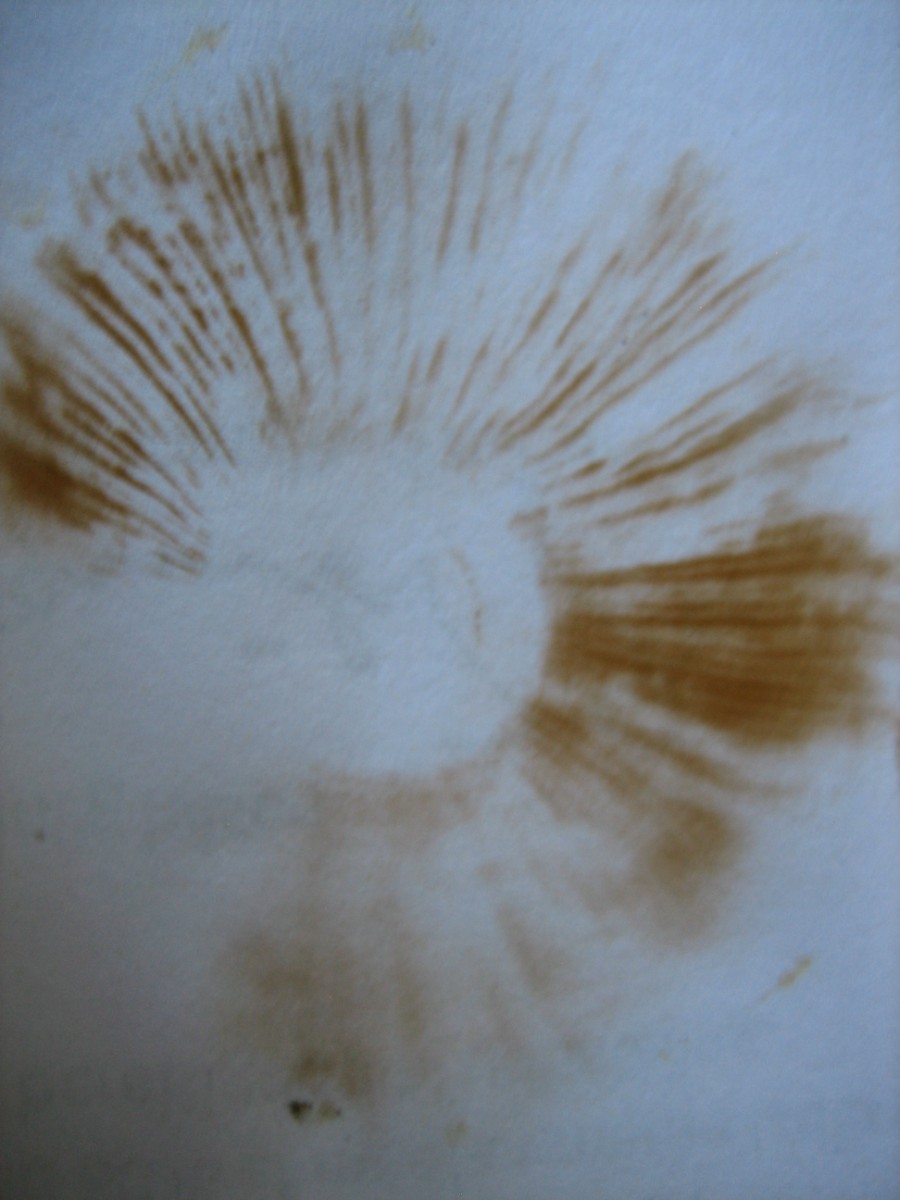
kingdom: Fungi
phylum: Basidiomycota
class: Agaricomycetes
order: Agaricales
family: Hymenogastraceae
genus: Gymnopilus
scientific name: Gymnopilus spectabilis
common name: fibret flammehat
